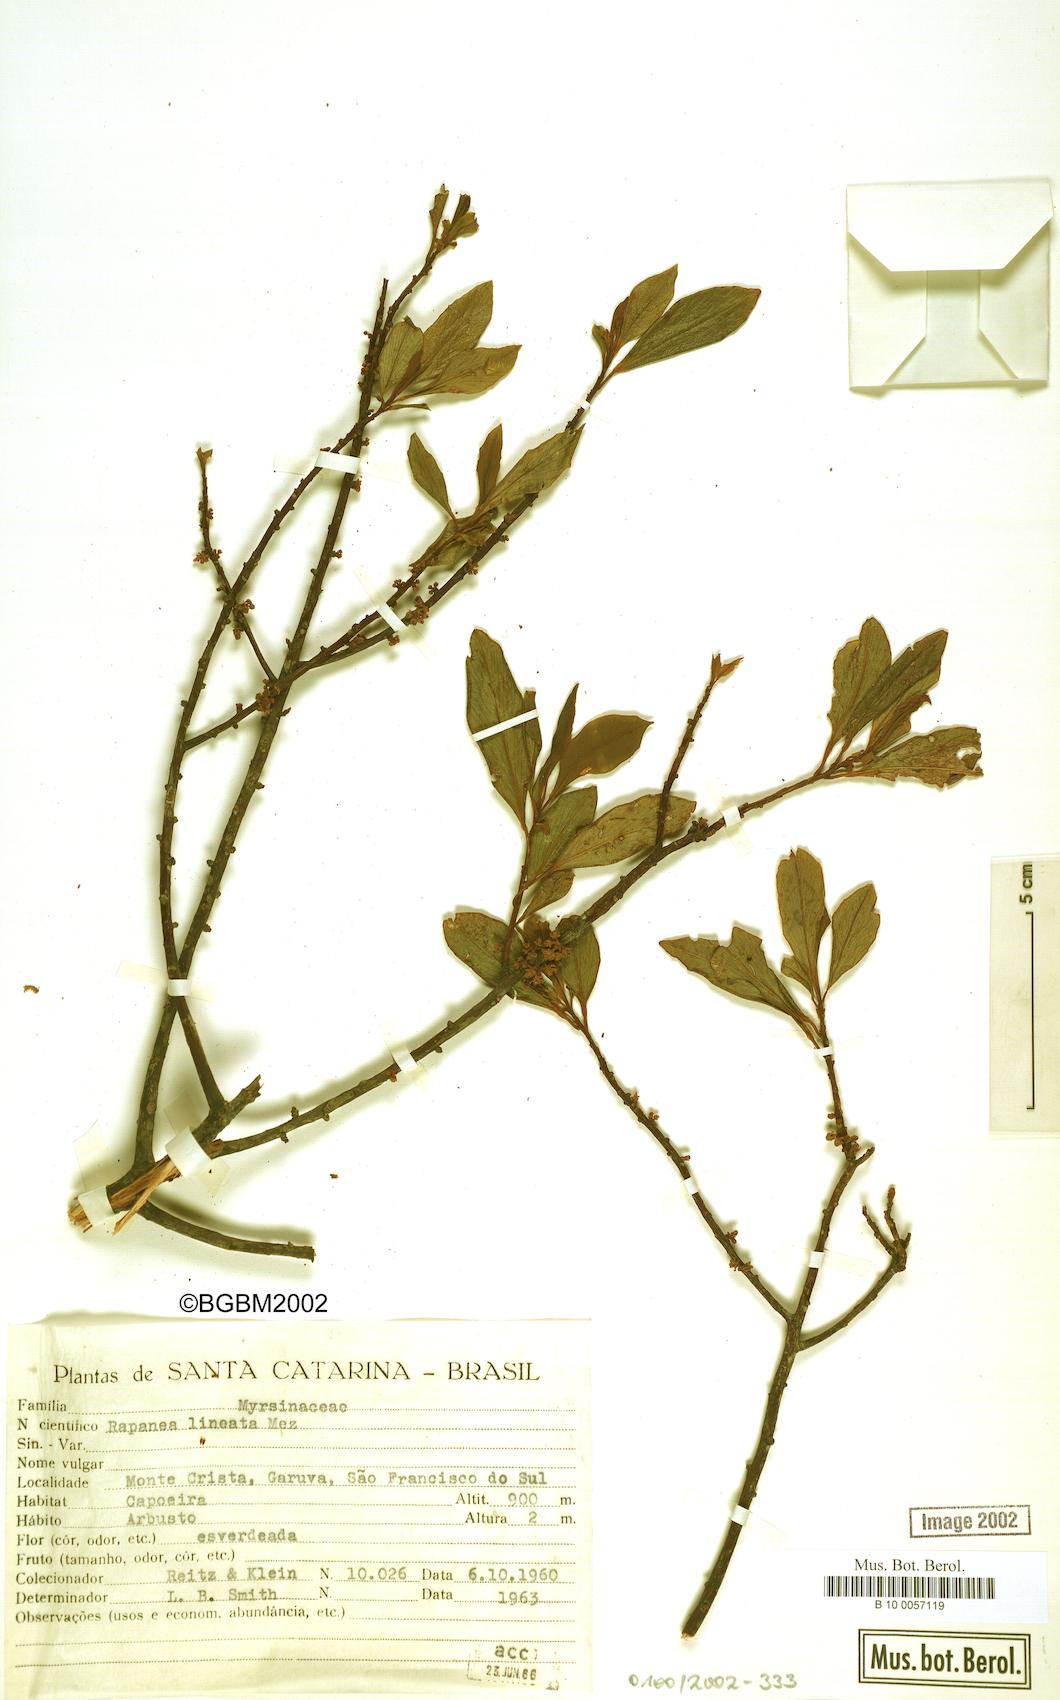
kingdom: Plantae
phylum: Tracheophyta
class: Magnoliopsida
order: Ericales
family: Primulaceae
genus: Myrsine
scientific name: Myrsine lineata
